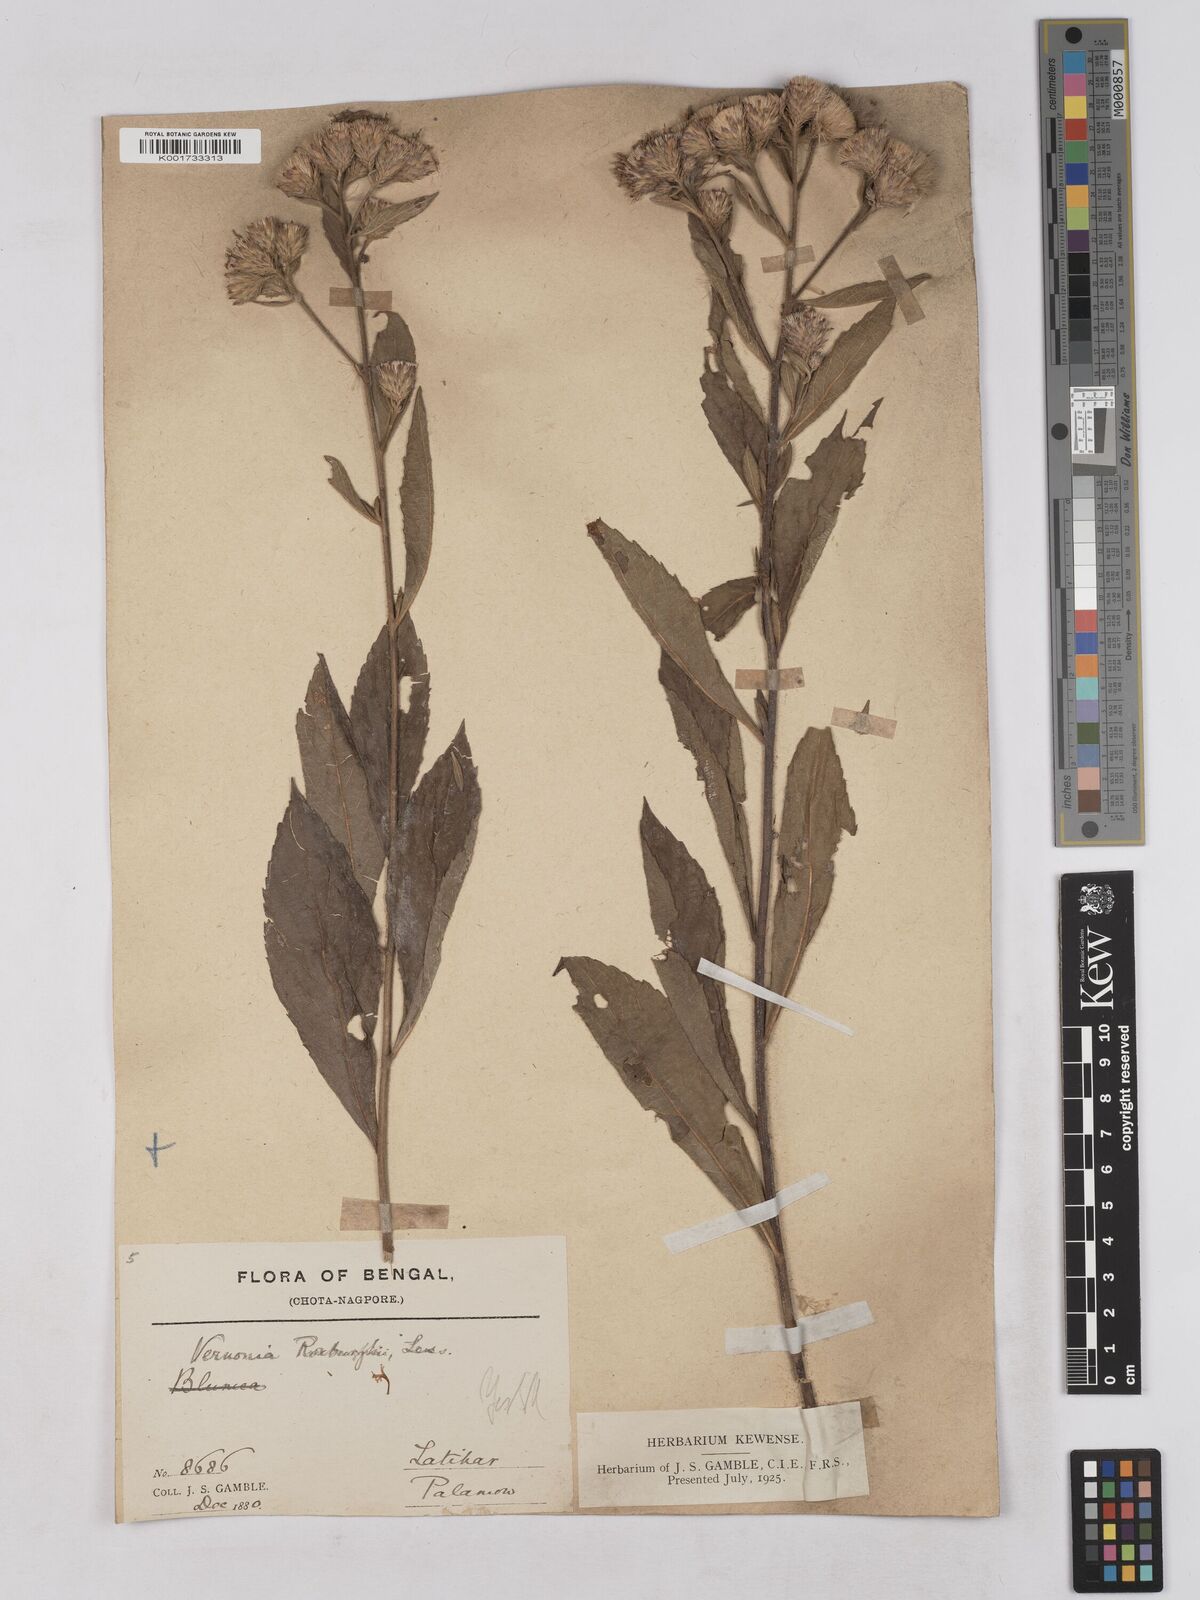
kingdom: Plantae
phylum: Tracheophyta
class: Magnoliopsida
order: Asterales
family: Asteraceae
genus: Acilepis
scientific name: Acilepis aspera
